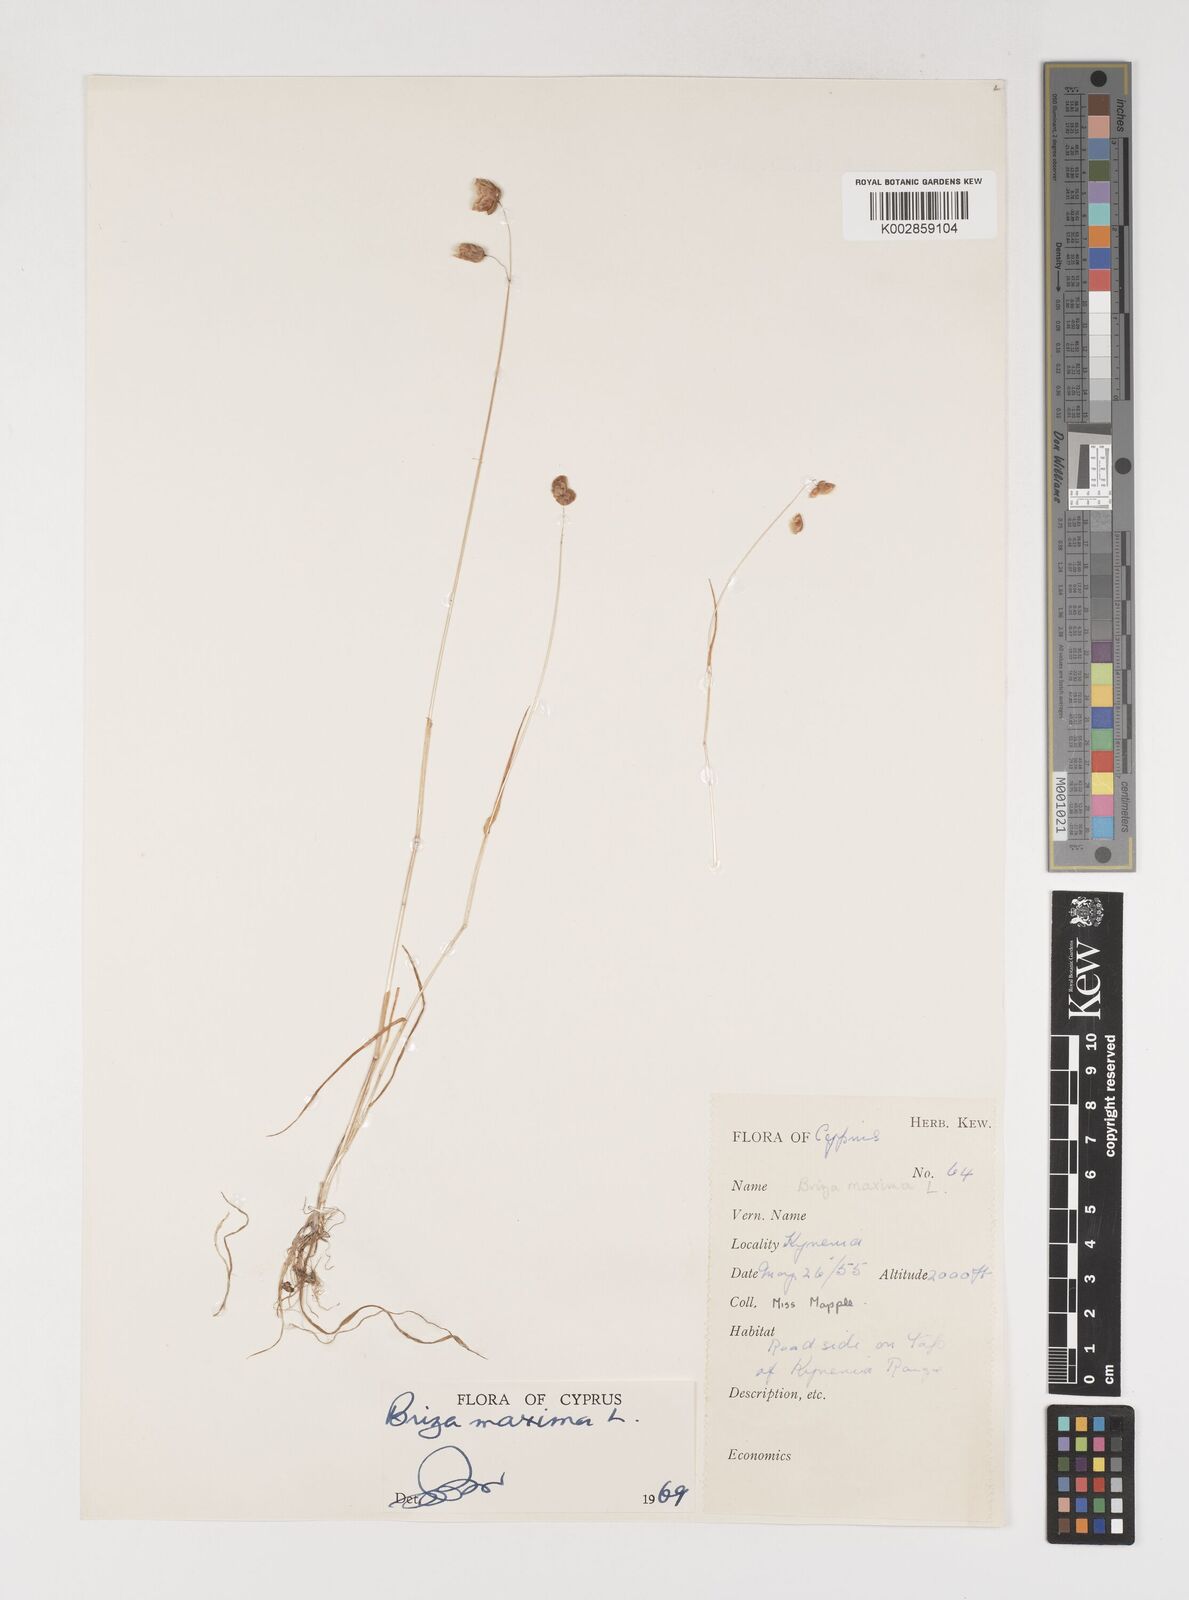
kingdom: Plantae
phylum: Tracheophyta
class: Liliopsida
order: Poales
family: Poaceae
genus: Briza
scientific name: Briza maxima
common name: Big quakinggrass
